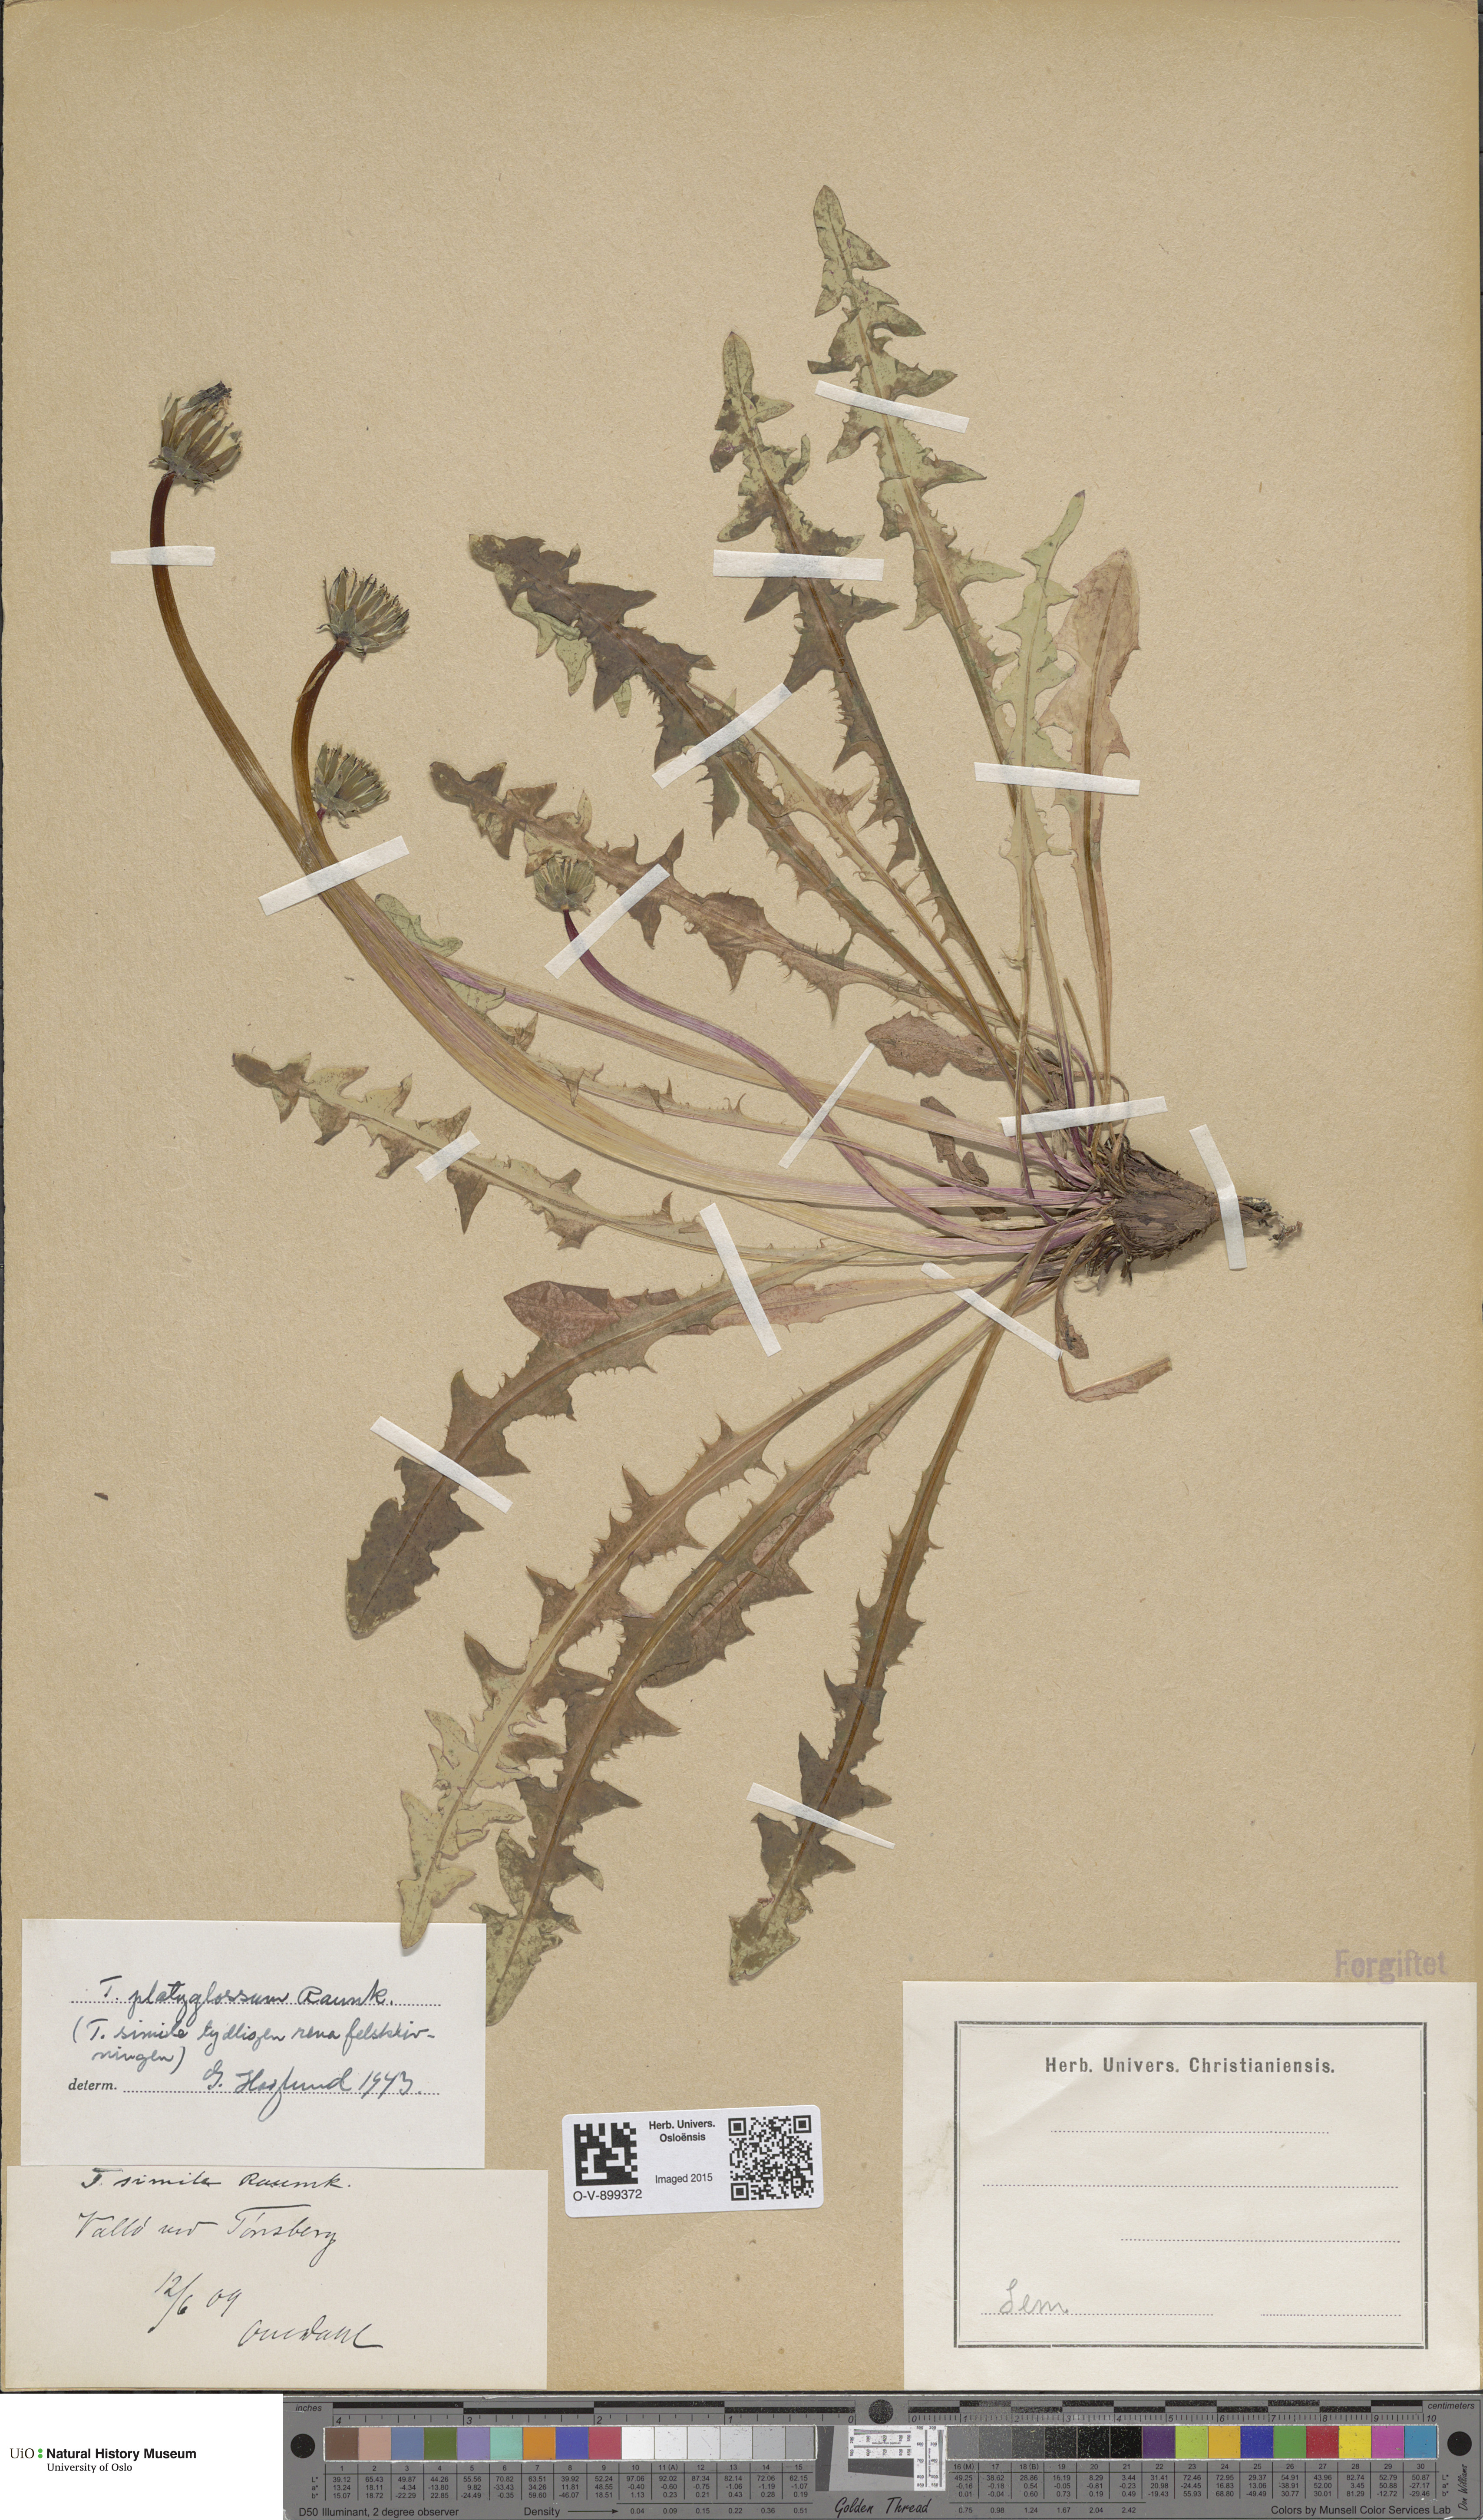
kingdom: Plantae
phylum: Tracheophyta
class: Magnoliopsida
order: Asterales
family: Asteraceae
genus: Taraxacum
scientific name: Taraxacum platyglossum
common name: Tongue-leaved dandelion
